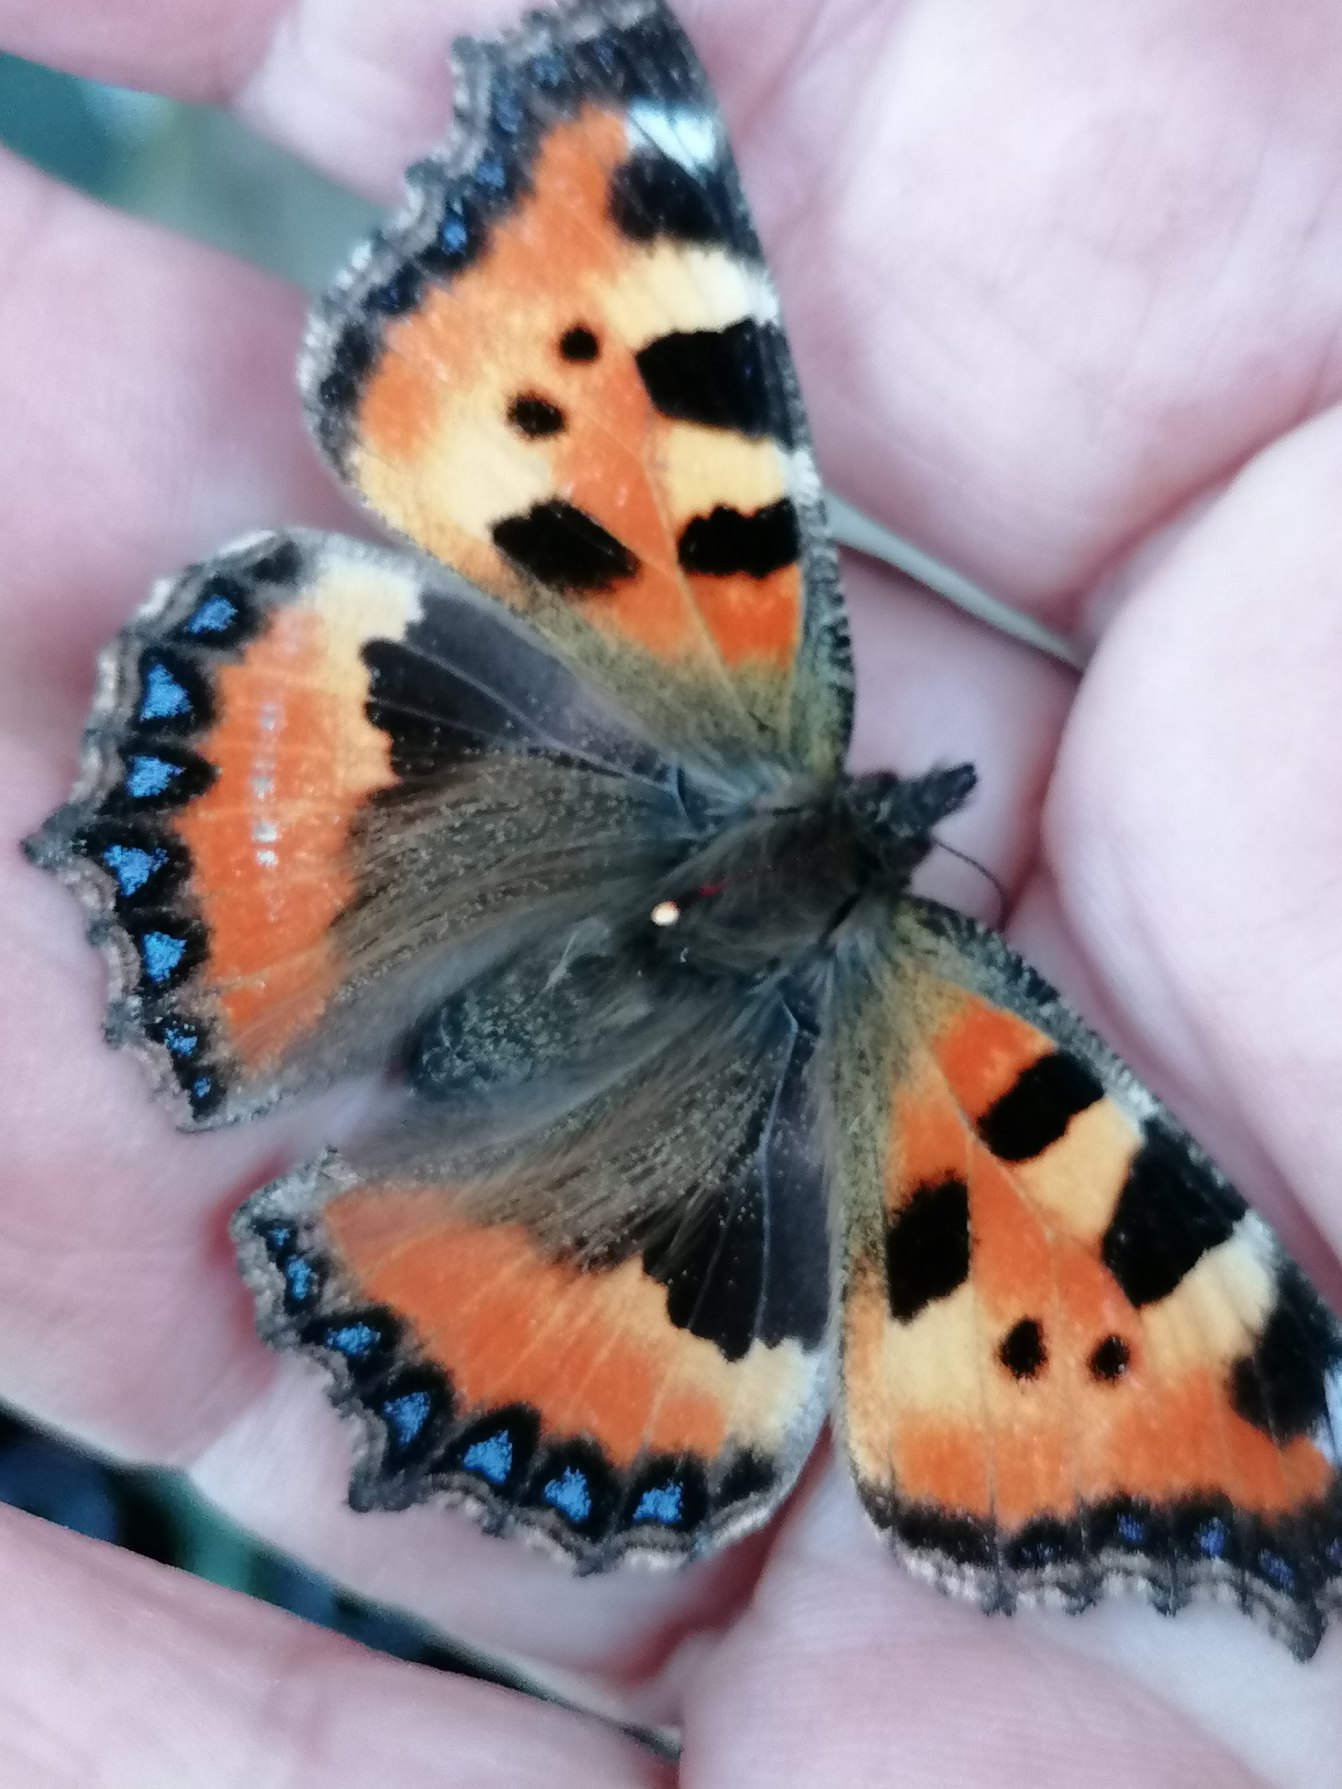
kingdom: Animalia
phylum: Arthropoda
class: Insecta
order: Lepidoptera
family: Nymphalidae
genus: Aglais
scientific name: Aglais urticae
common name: Nældens takvinge
